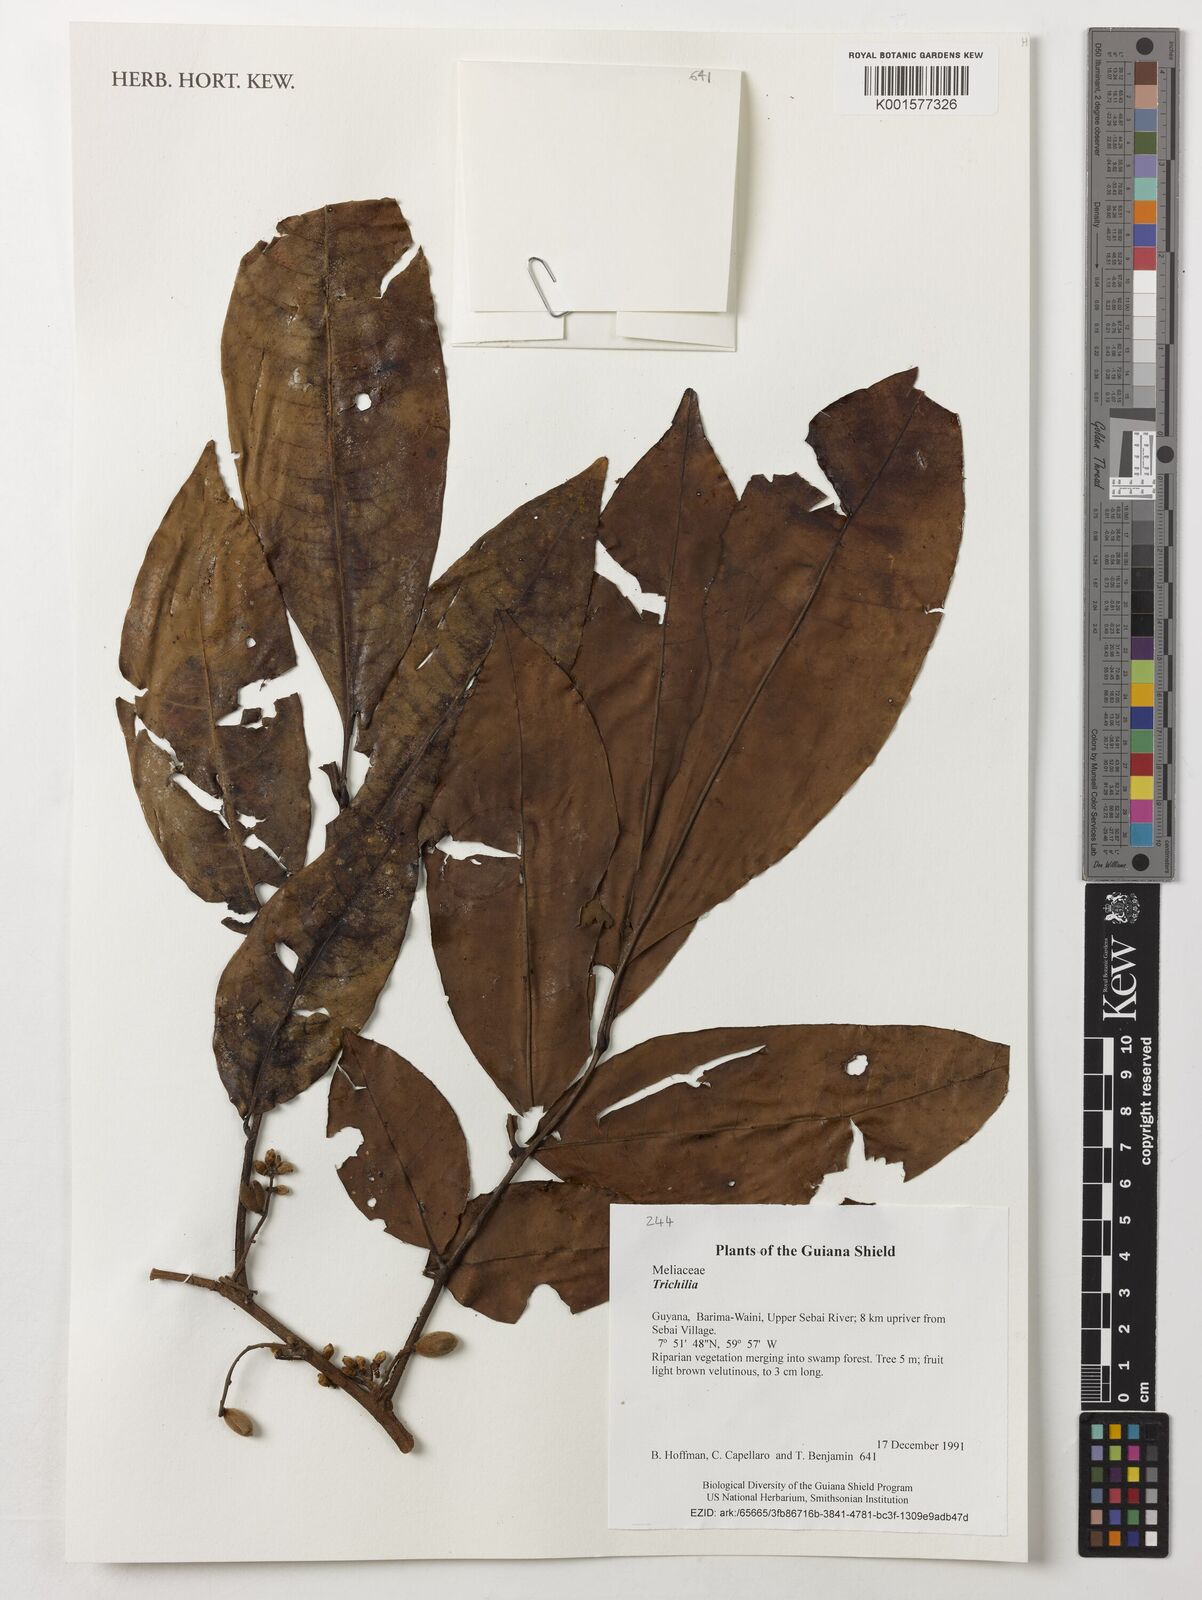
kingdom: Plantae
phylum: Tracheophyta
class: Magnoliopsida
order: Sapindales
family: Meliaceae
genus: Trichilia
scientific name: Trichilia
